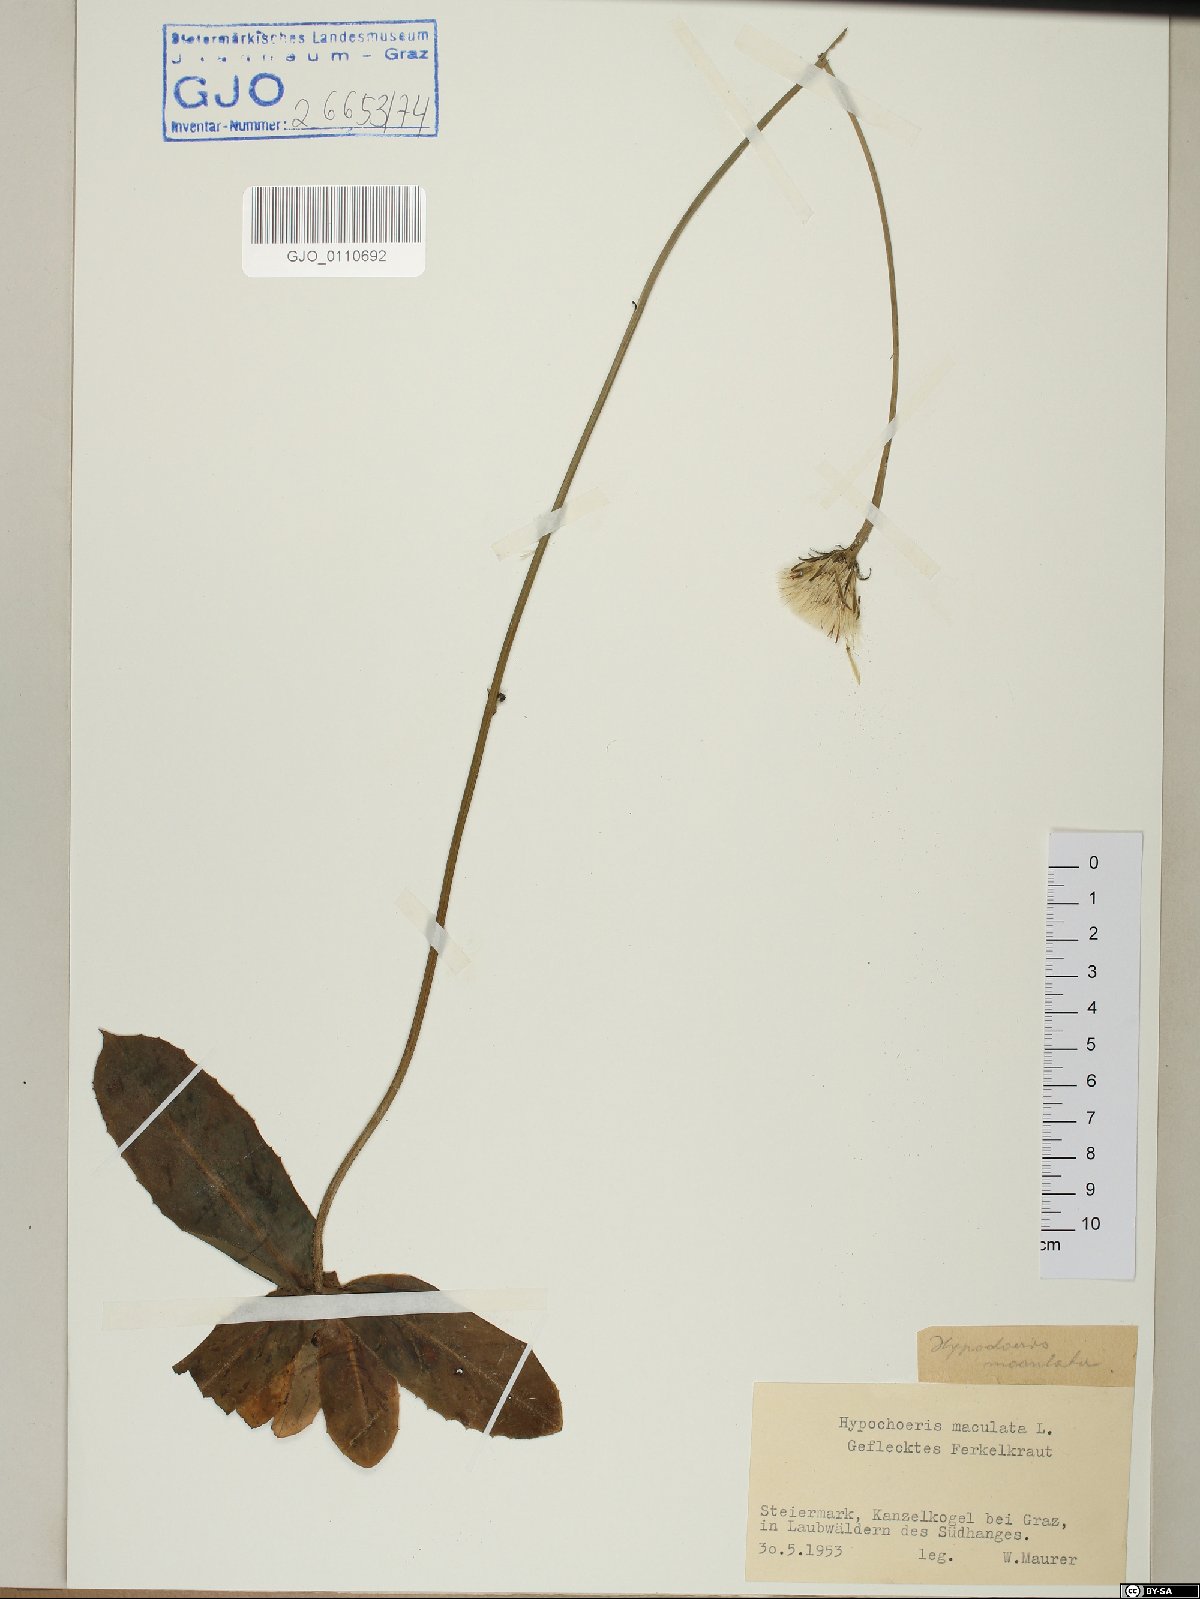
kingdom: Plantae
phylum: Tracheophyta
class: Magnoliopsida
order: Asterales
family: Asteraceae
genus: Trommsdorffia
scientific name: Trommsdorffia maculata
